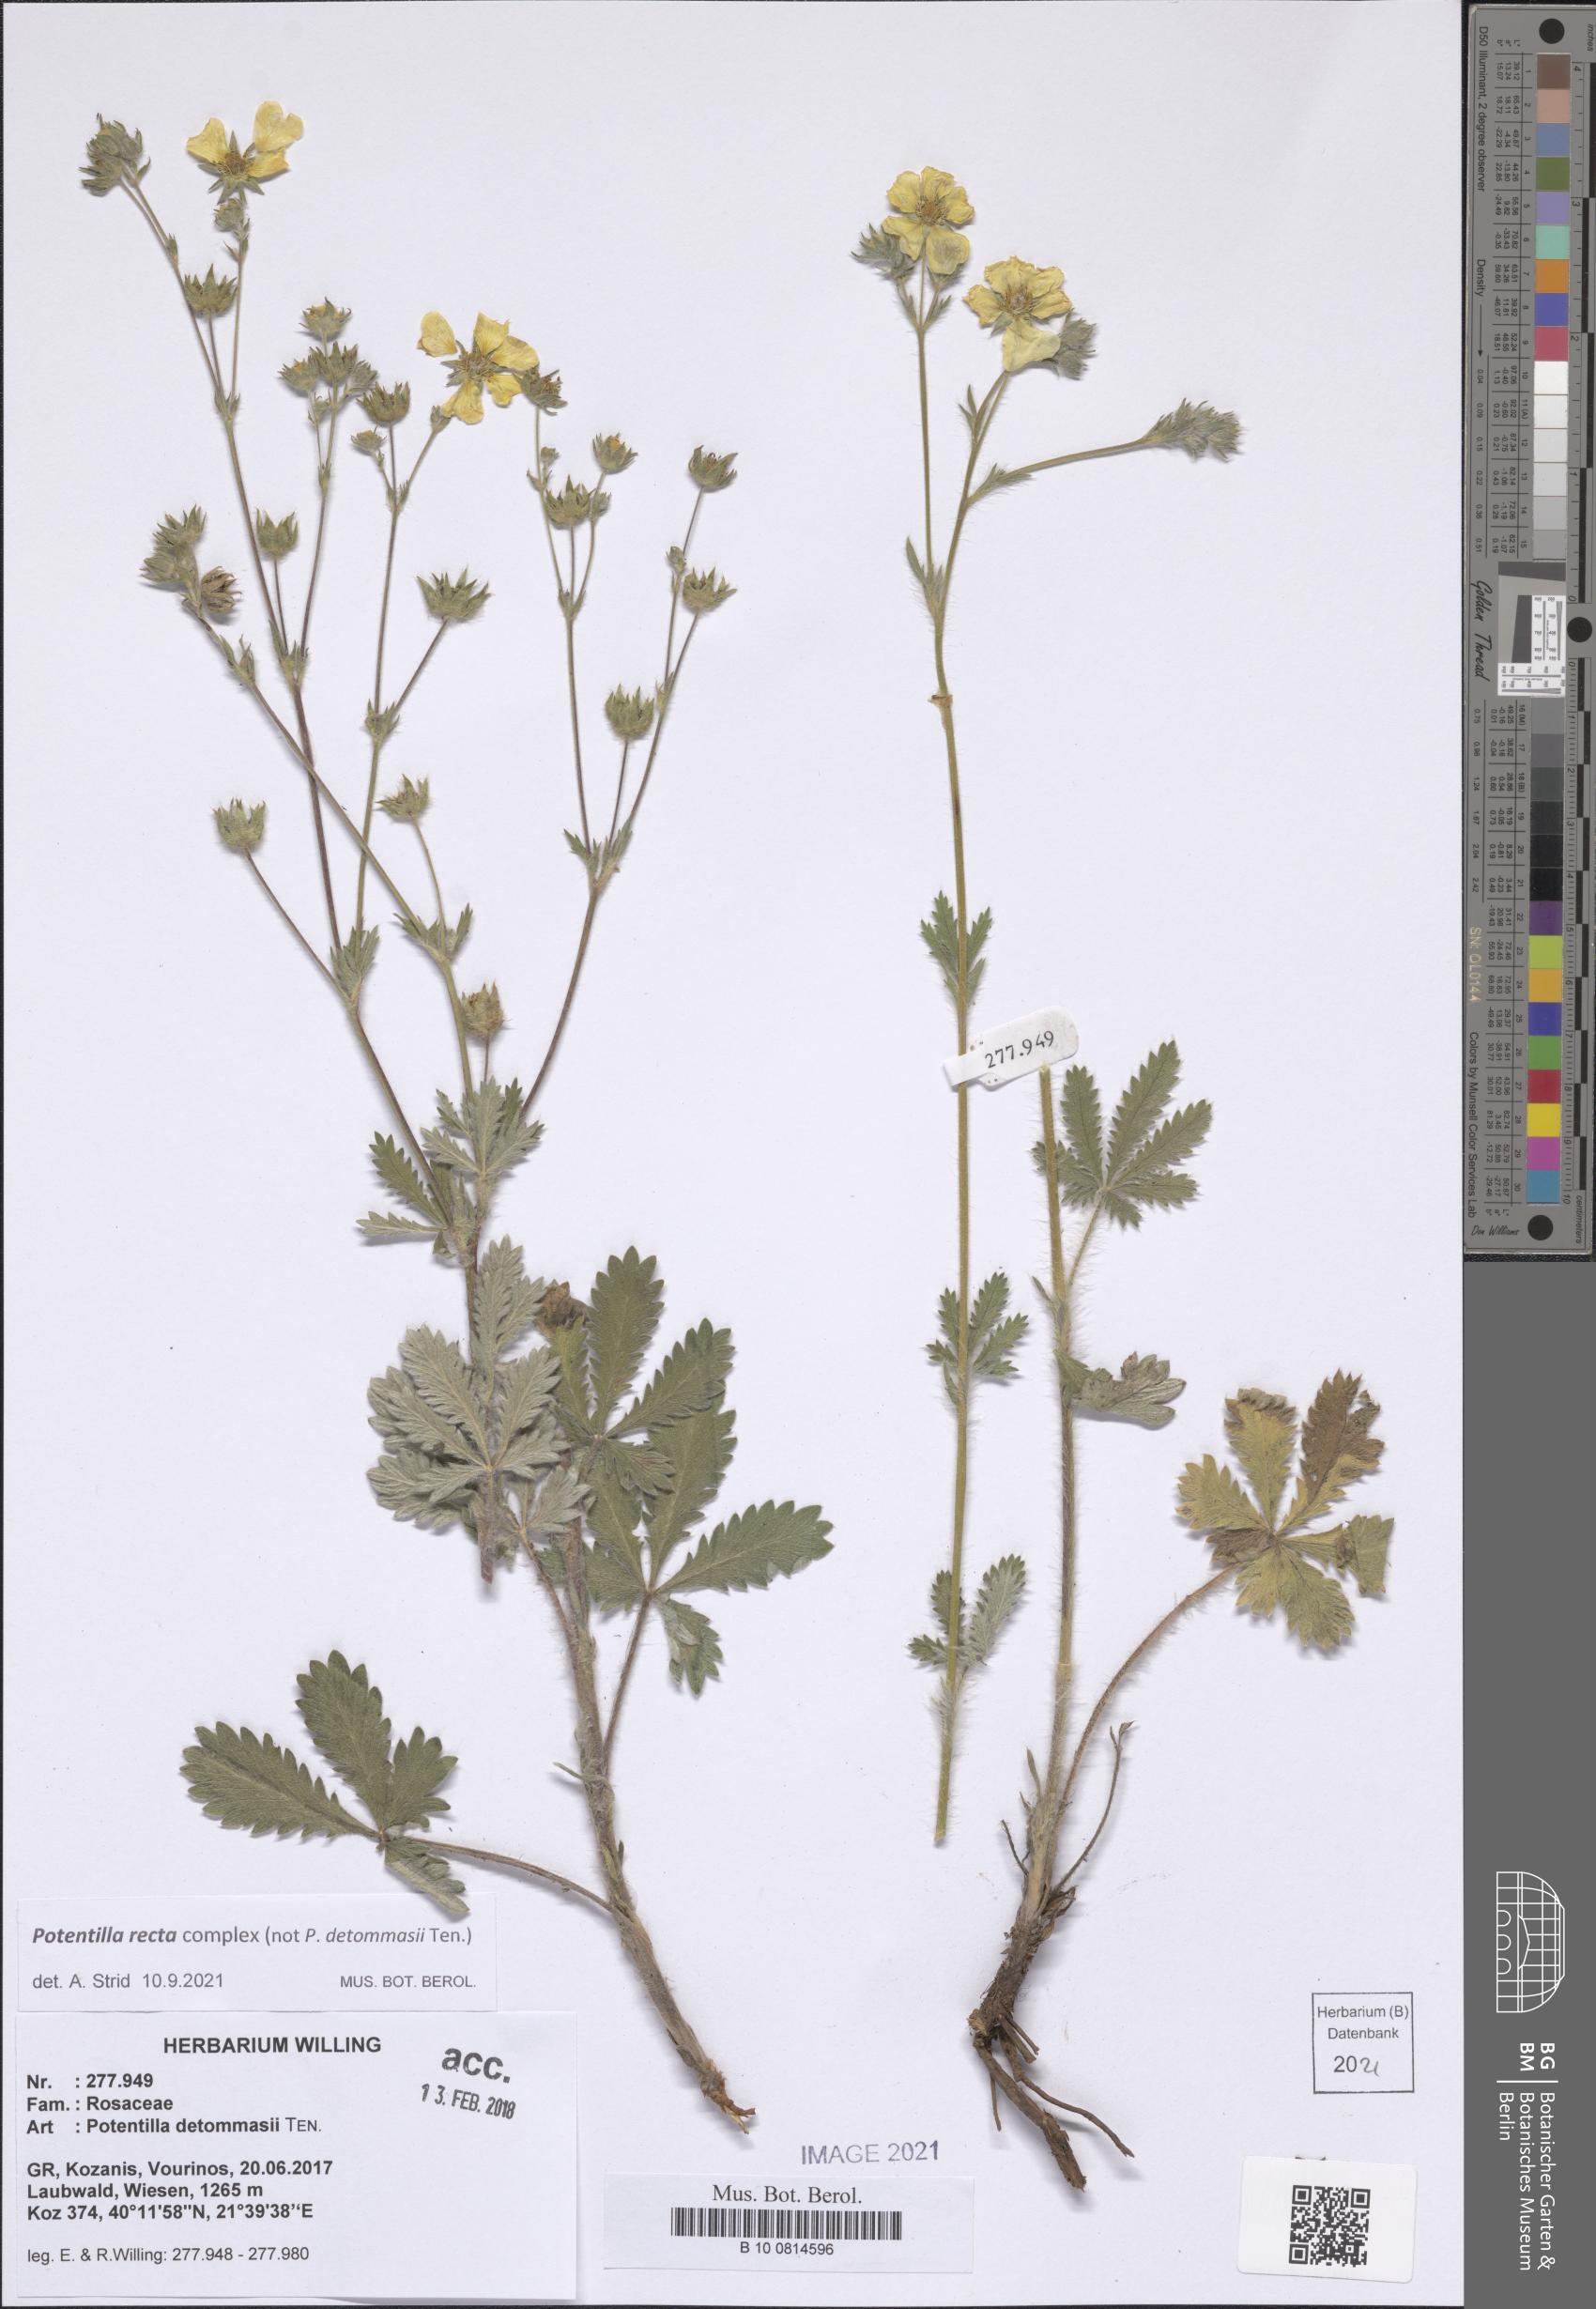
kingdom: Plantae
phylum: Tracheophyta
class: Magnoliopsida
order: Rosales
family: Rosaceae
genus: Potentilla
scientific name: Potentilla recta
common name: Sulphur cinquefoil
